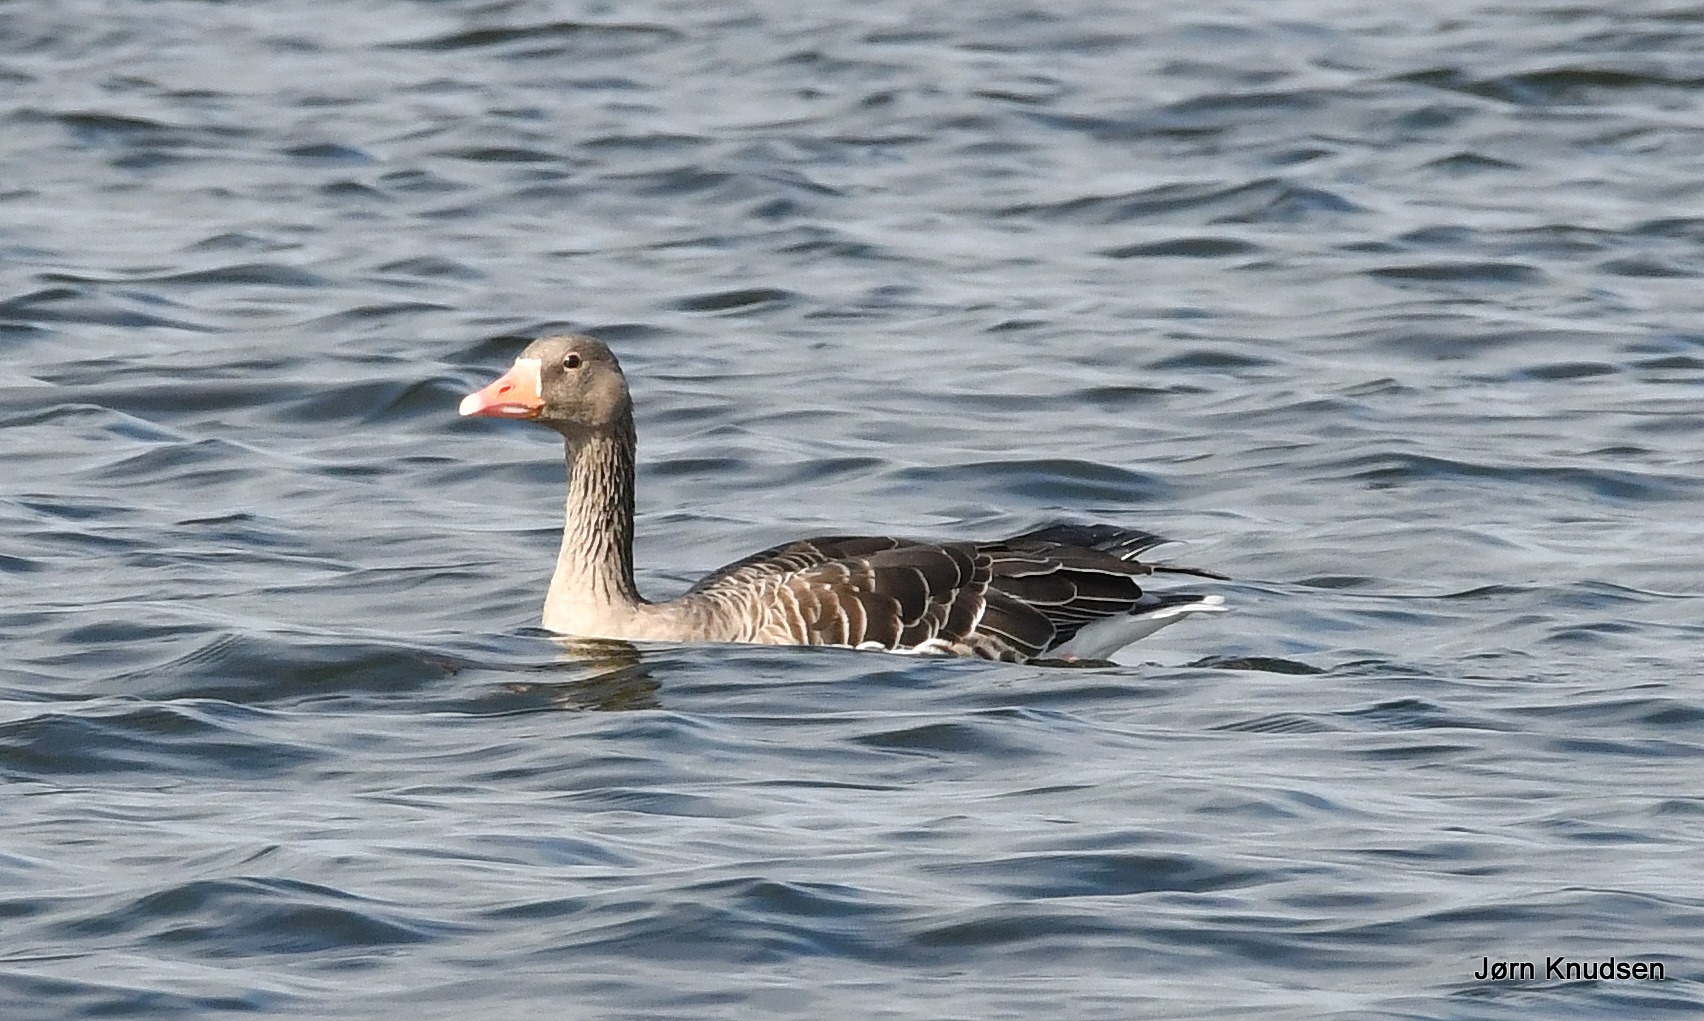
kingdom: Animalia
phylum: Chordata
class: Aves
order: Anseriformes
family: Anatidae
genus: Anser
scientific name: Anser anser
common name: Grågås
